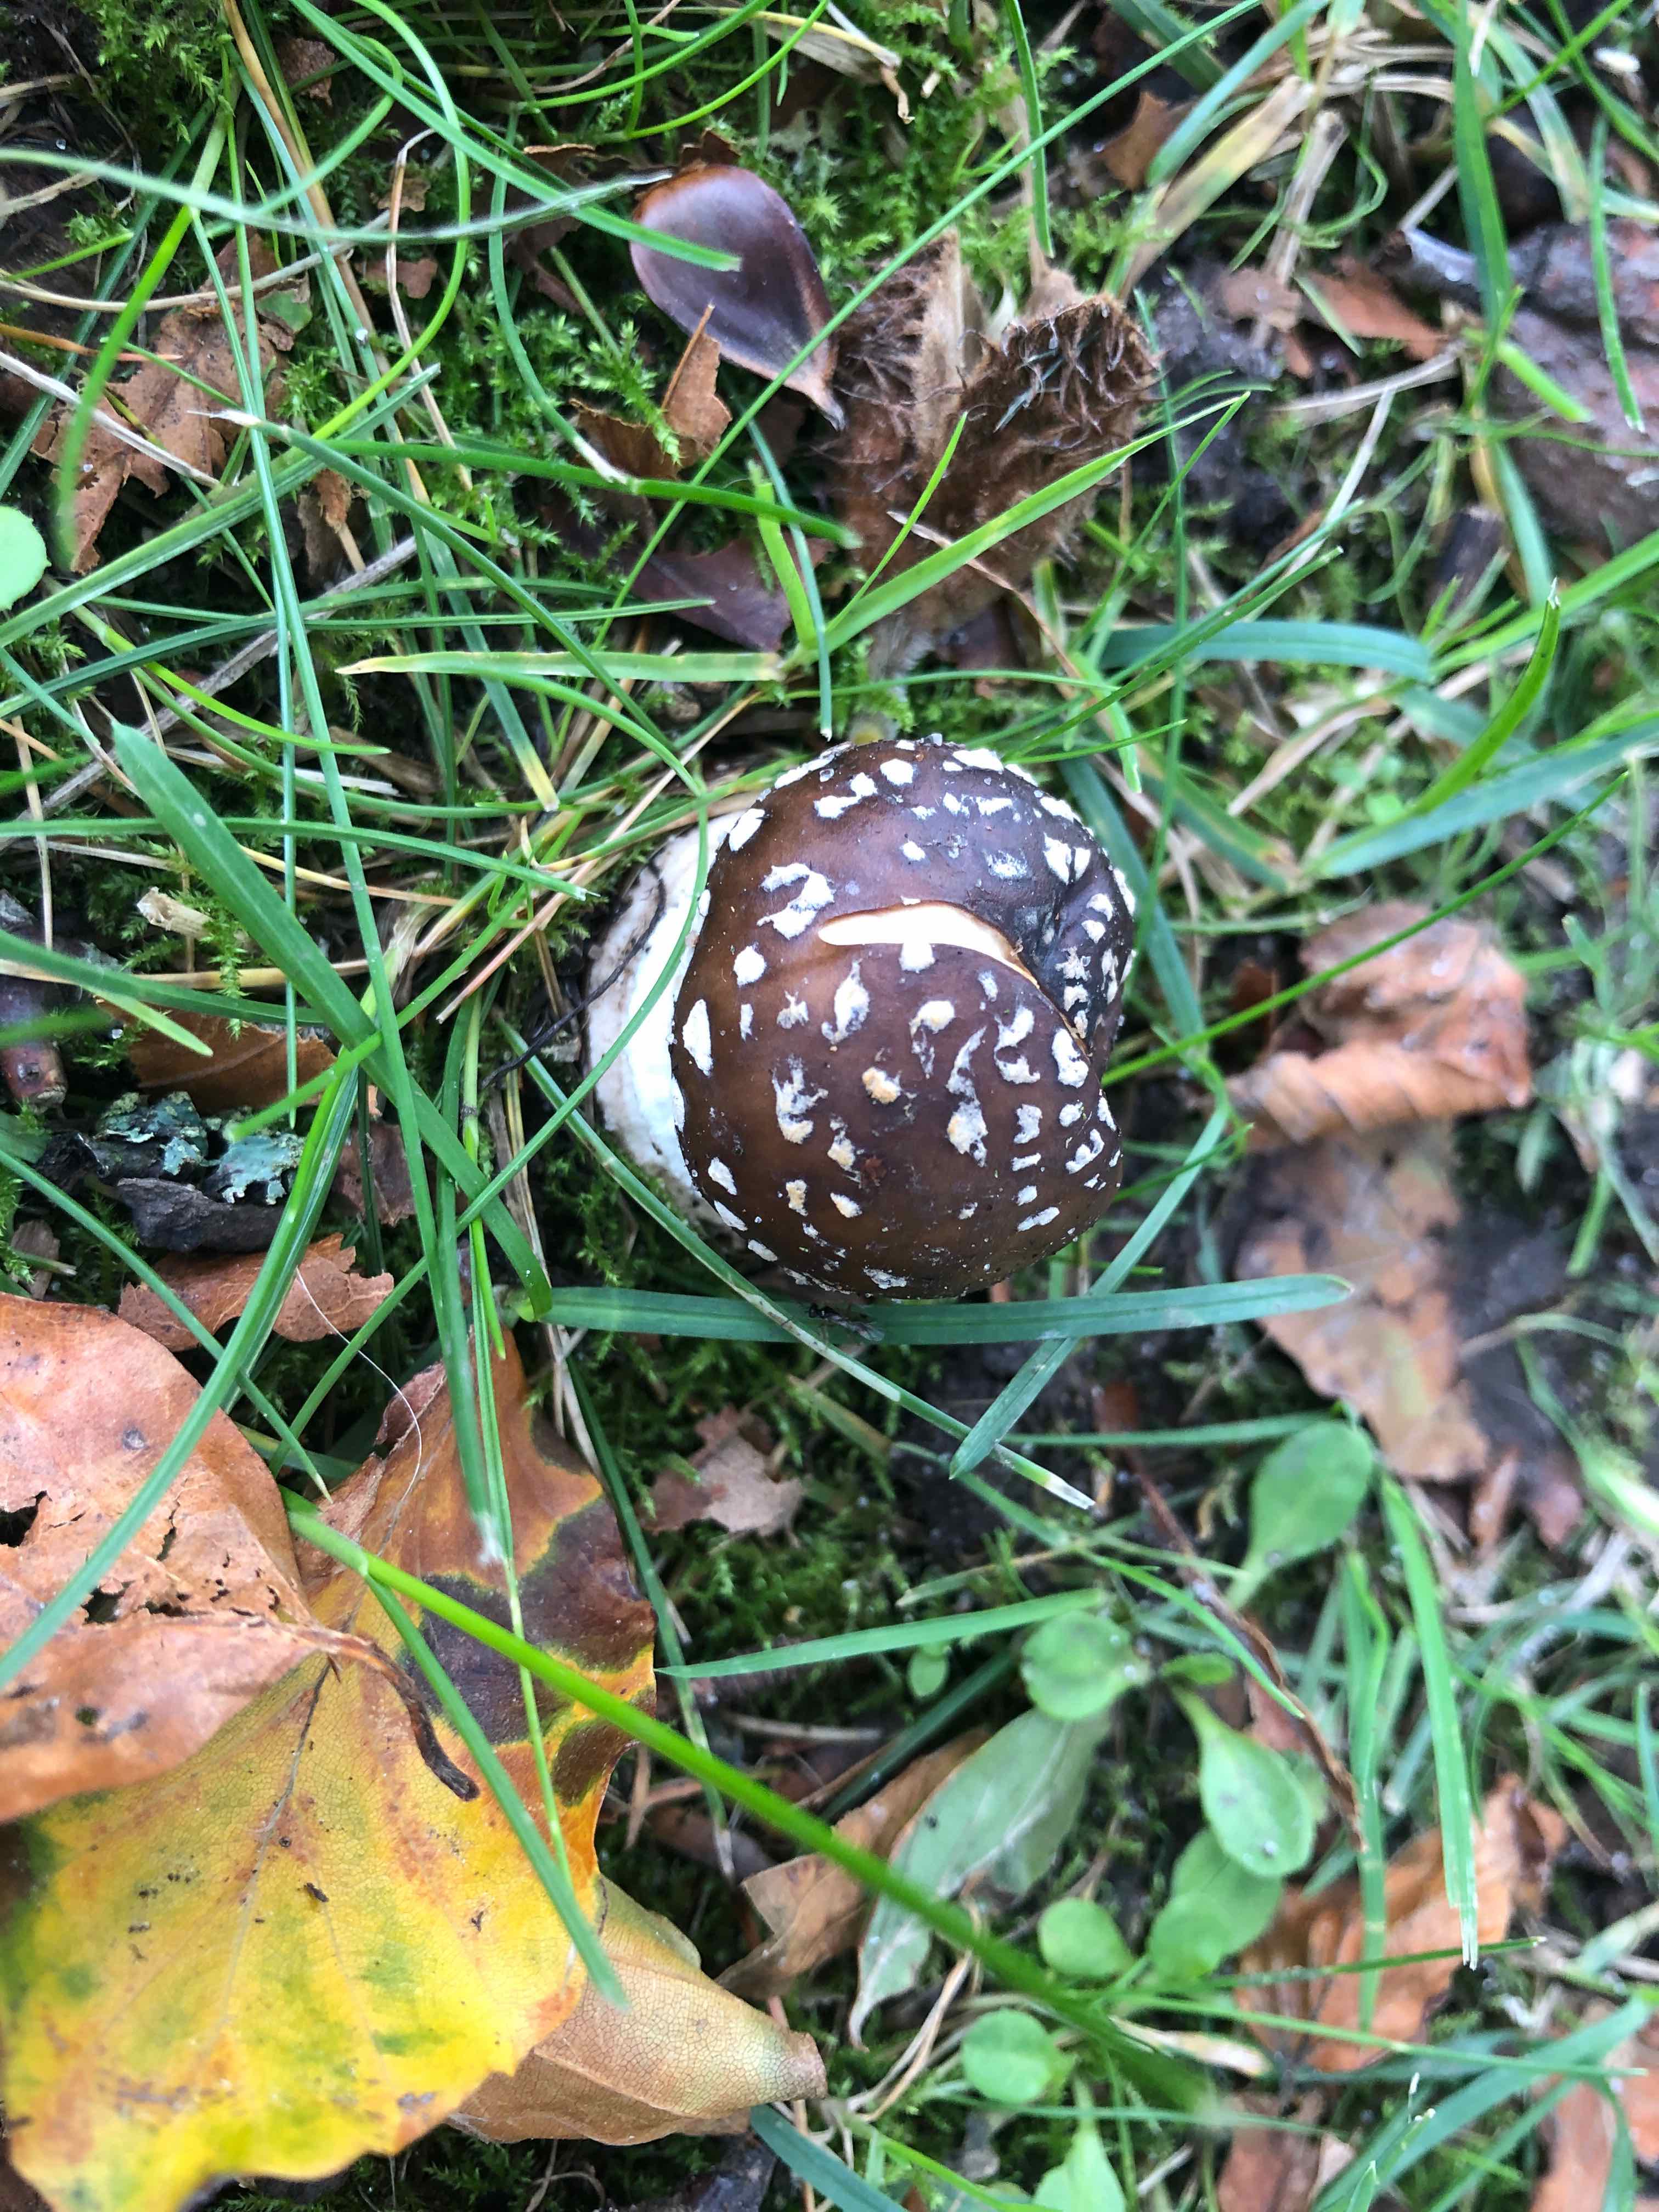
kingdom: Fungi
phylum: Basidiomycota
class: Agaricomycetes
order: Agaricales
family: Amanitaceae
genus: Amanita
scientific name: Amanita pantherina
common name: panter-fluesvamp
